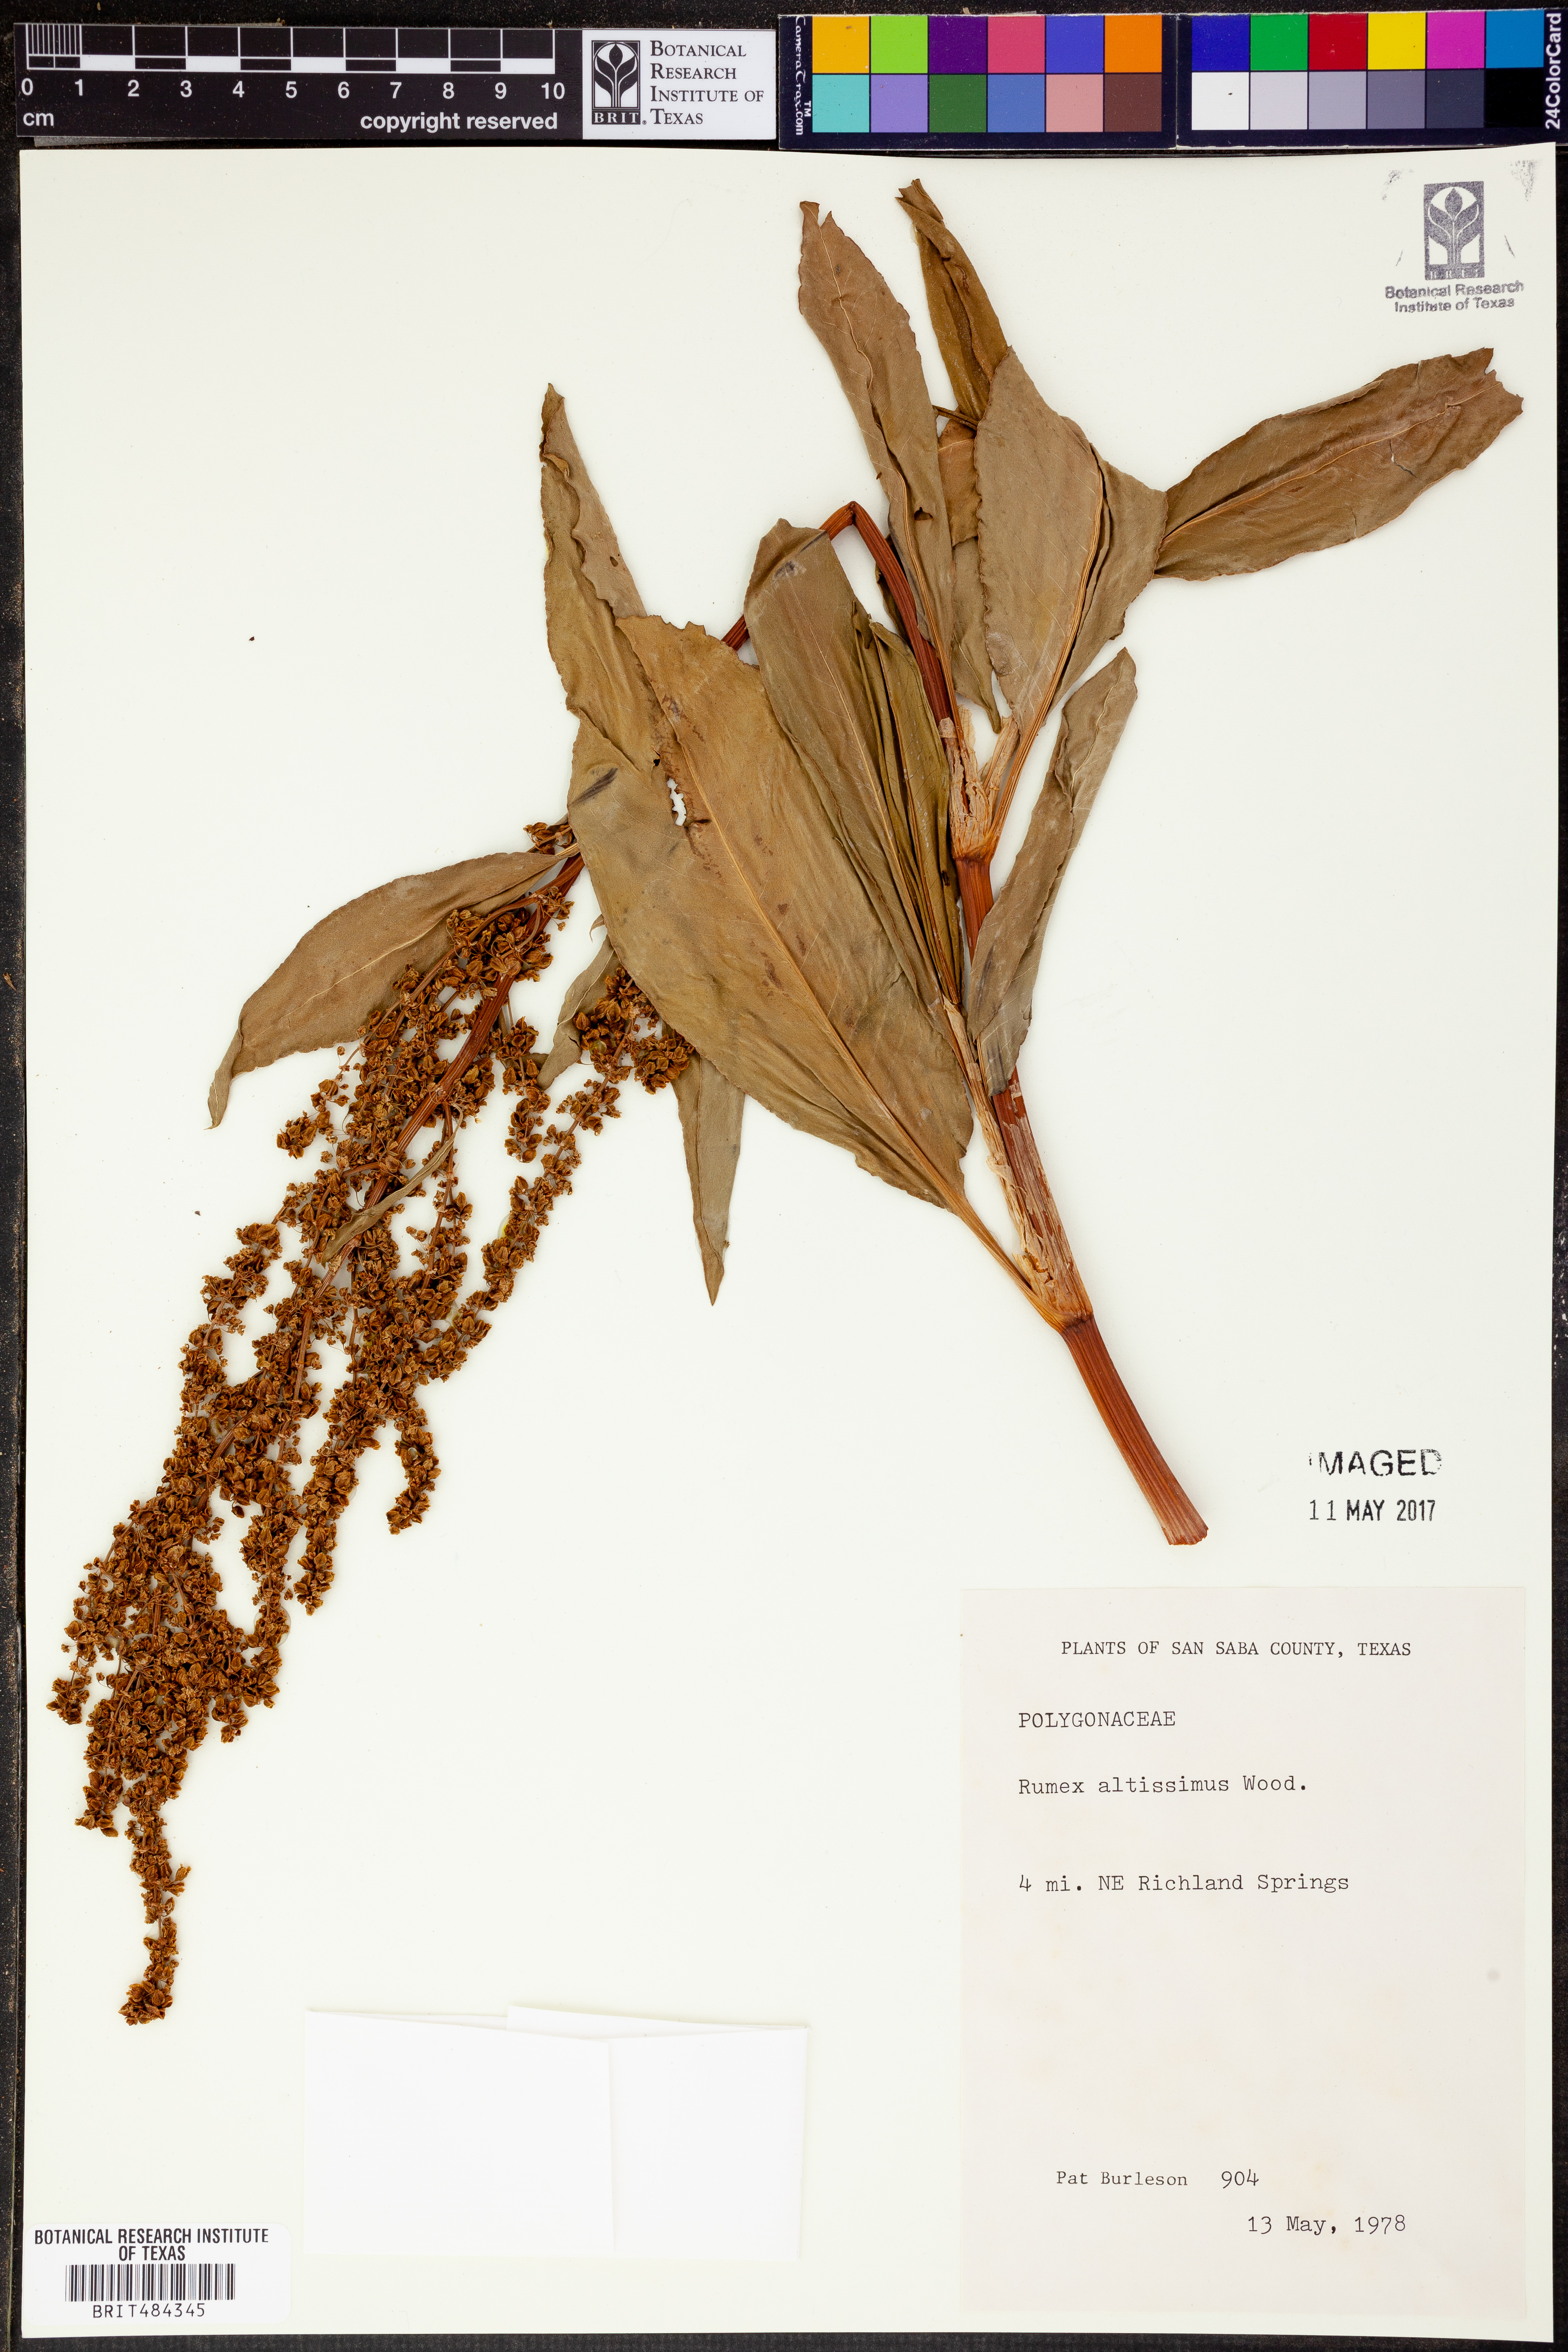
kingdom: Plantae
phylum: Tracheophyta
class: Magnoliopsida
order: Caryophyllales
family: Polygonaceae
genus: Rumex
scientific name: Rumex altissimus
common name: Smooth dock
